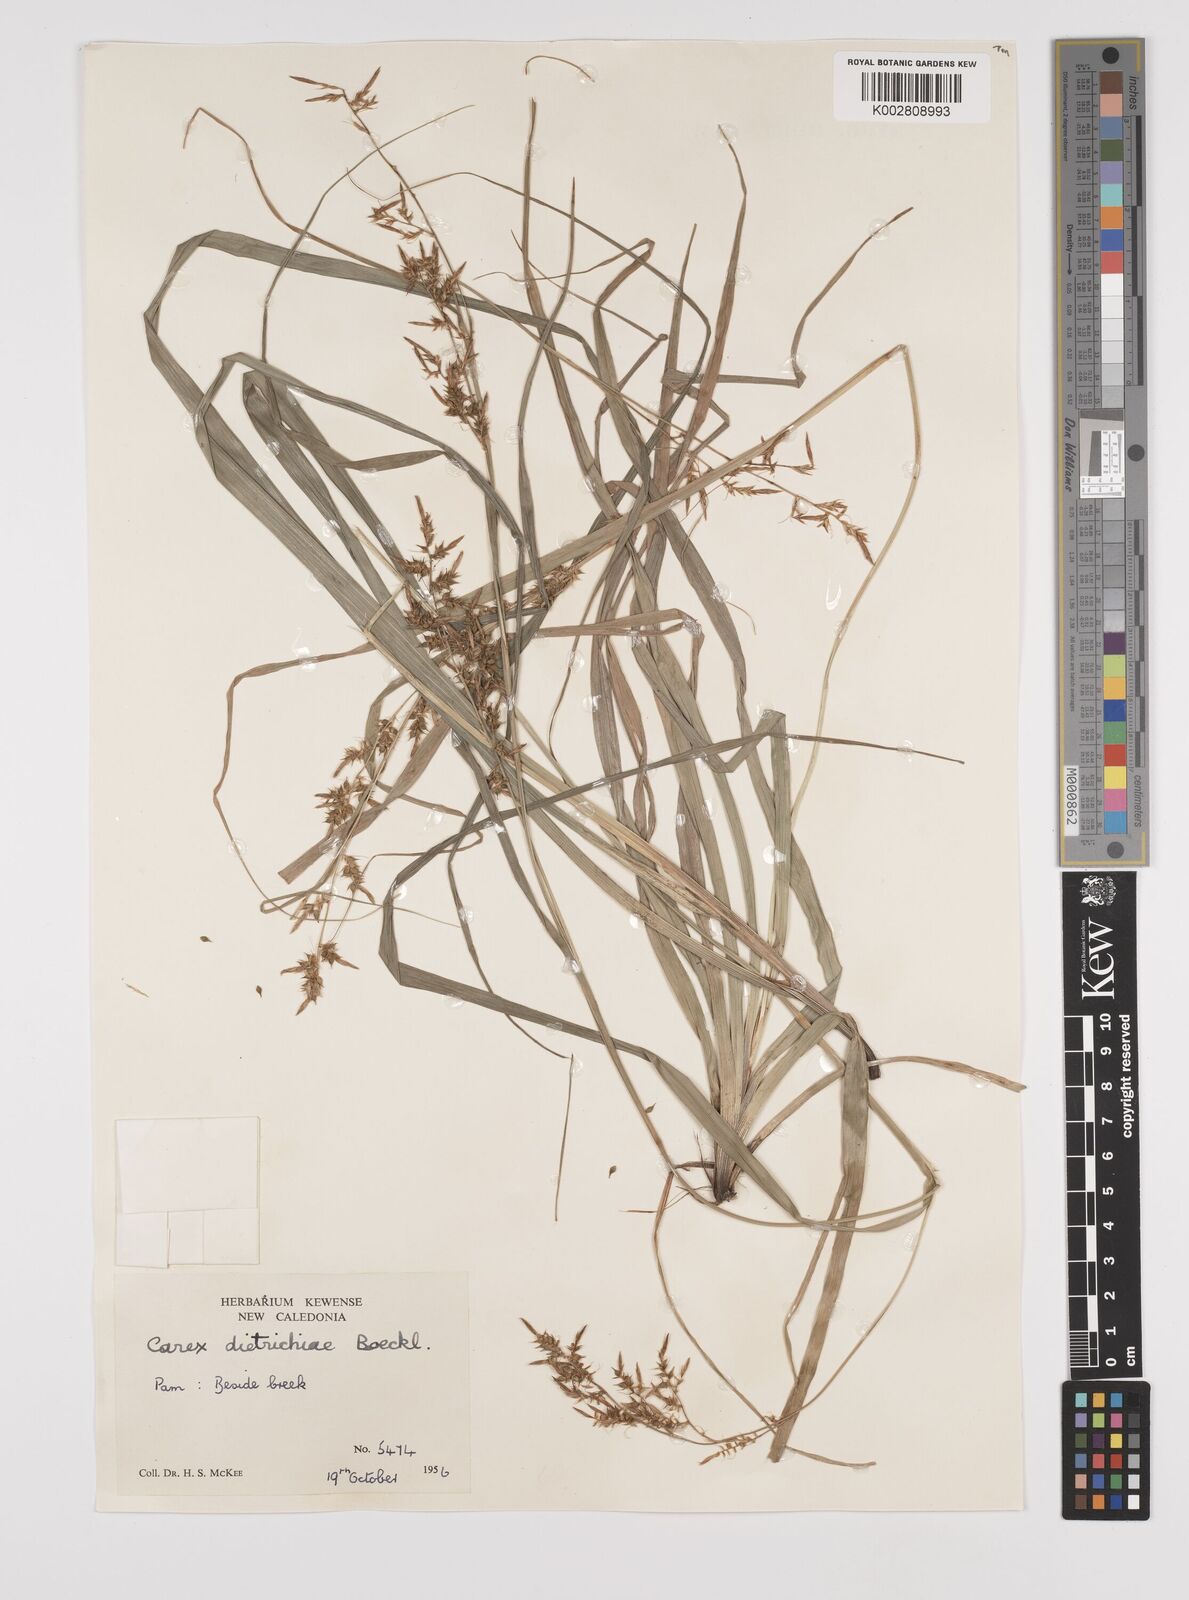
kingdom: Plantae
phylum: Tracheophyta
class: Liliopsida
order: Poales
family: Cyperaceae
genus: Carex
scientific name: Carex indica
